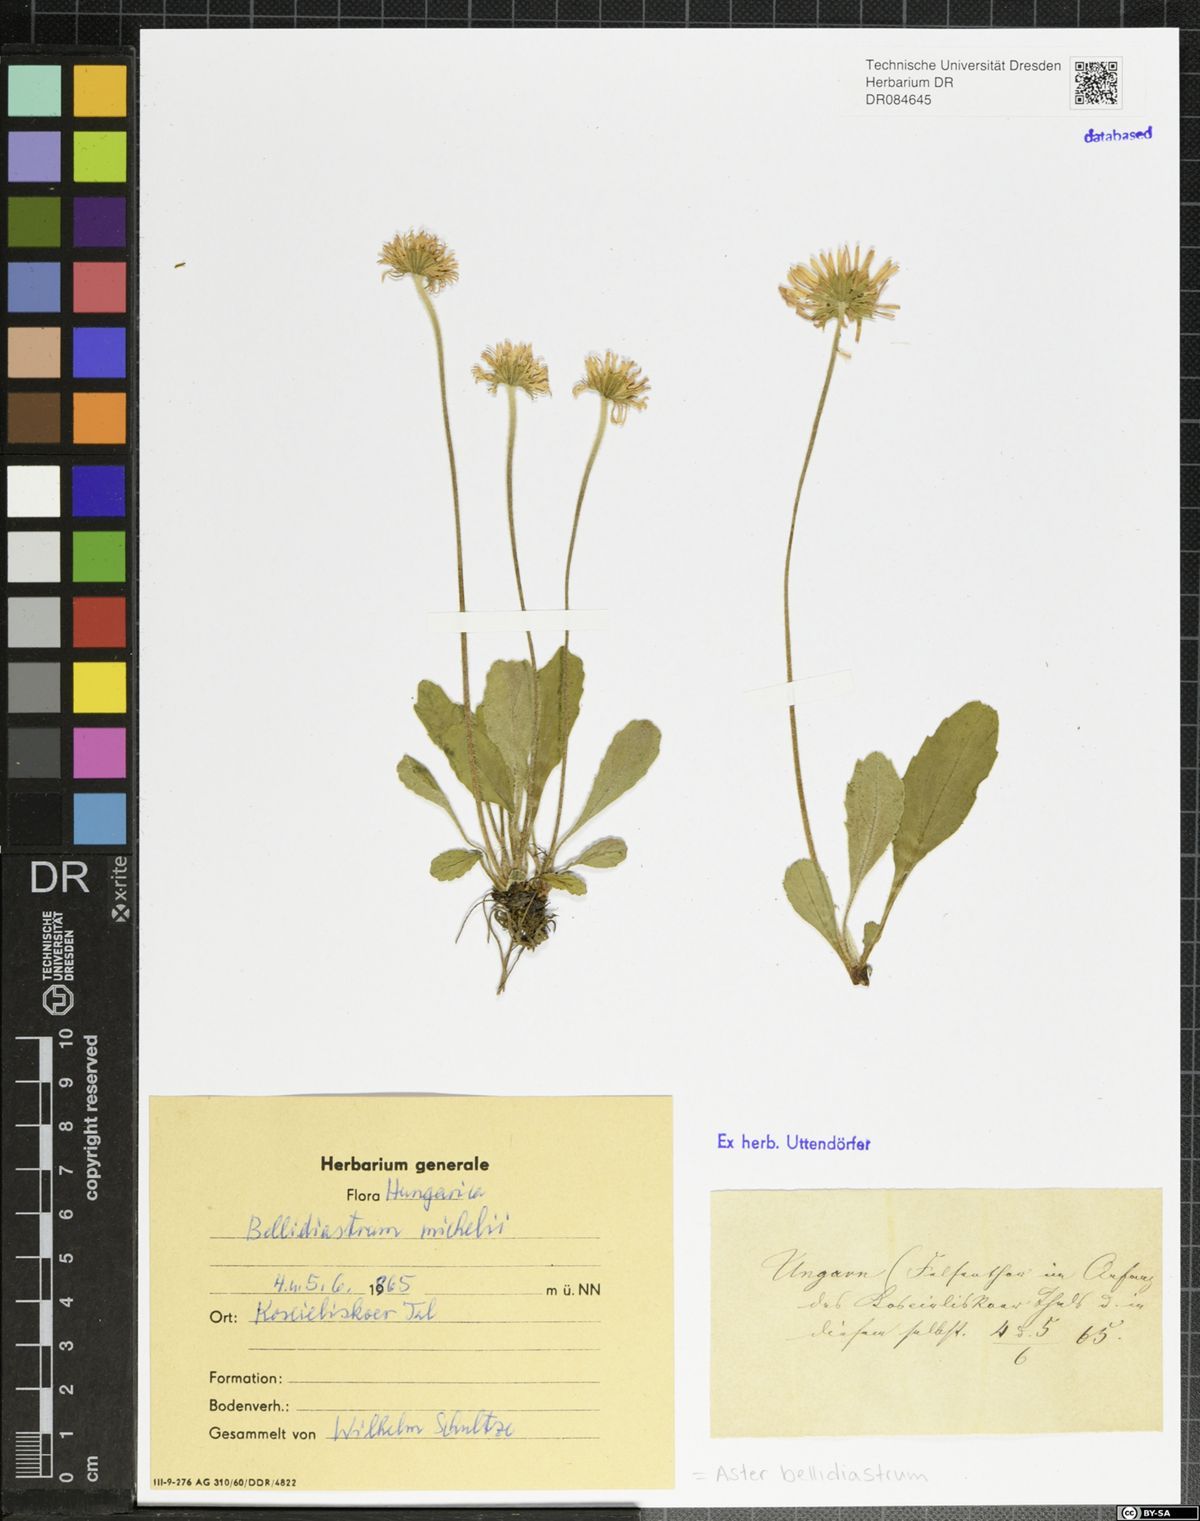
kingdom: Plantae
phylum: Tracheophyta
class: Magnoliopsida
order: Asterales
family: Asteraceae
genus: Bellidiastrum
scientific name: Bellidiastrum michelii
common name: Daisy-star aster
